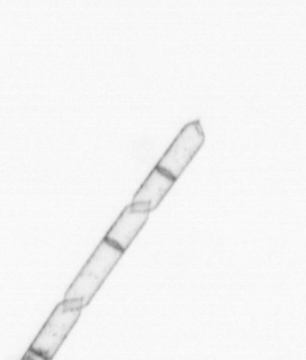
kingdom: Chromista
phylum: Ochrophyta
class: Bacillariophyceae
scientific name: Bacillariophyceae
